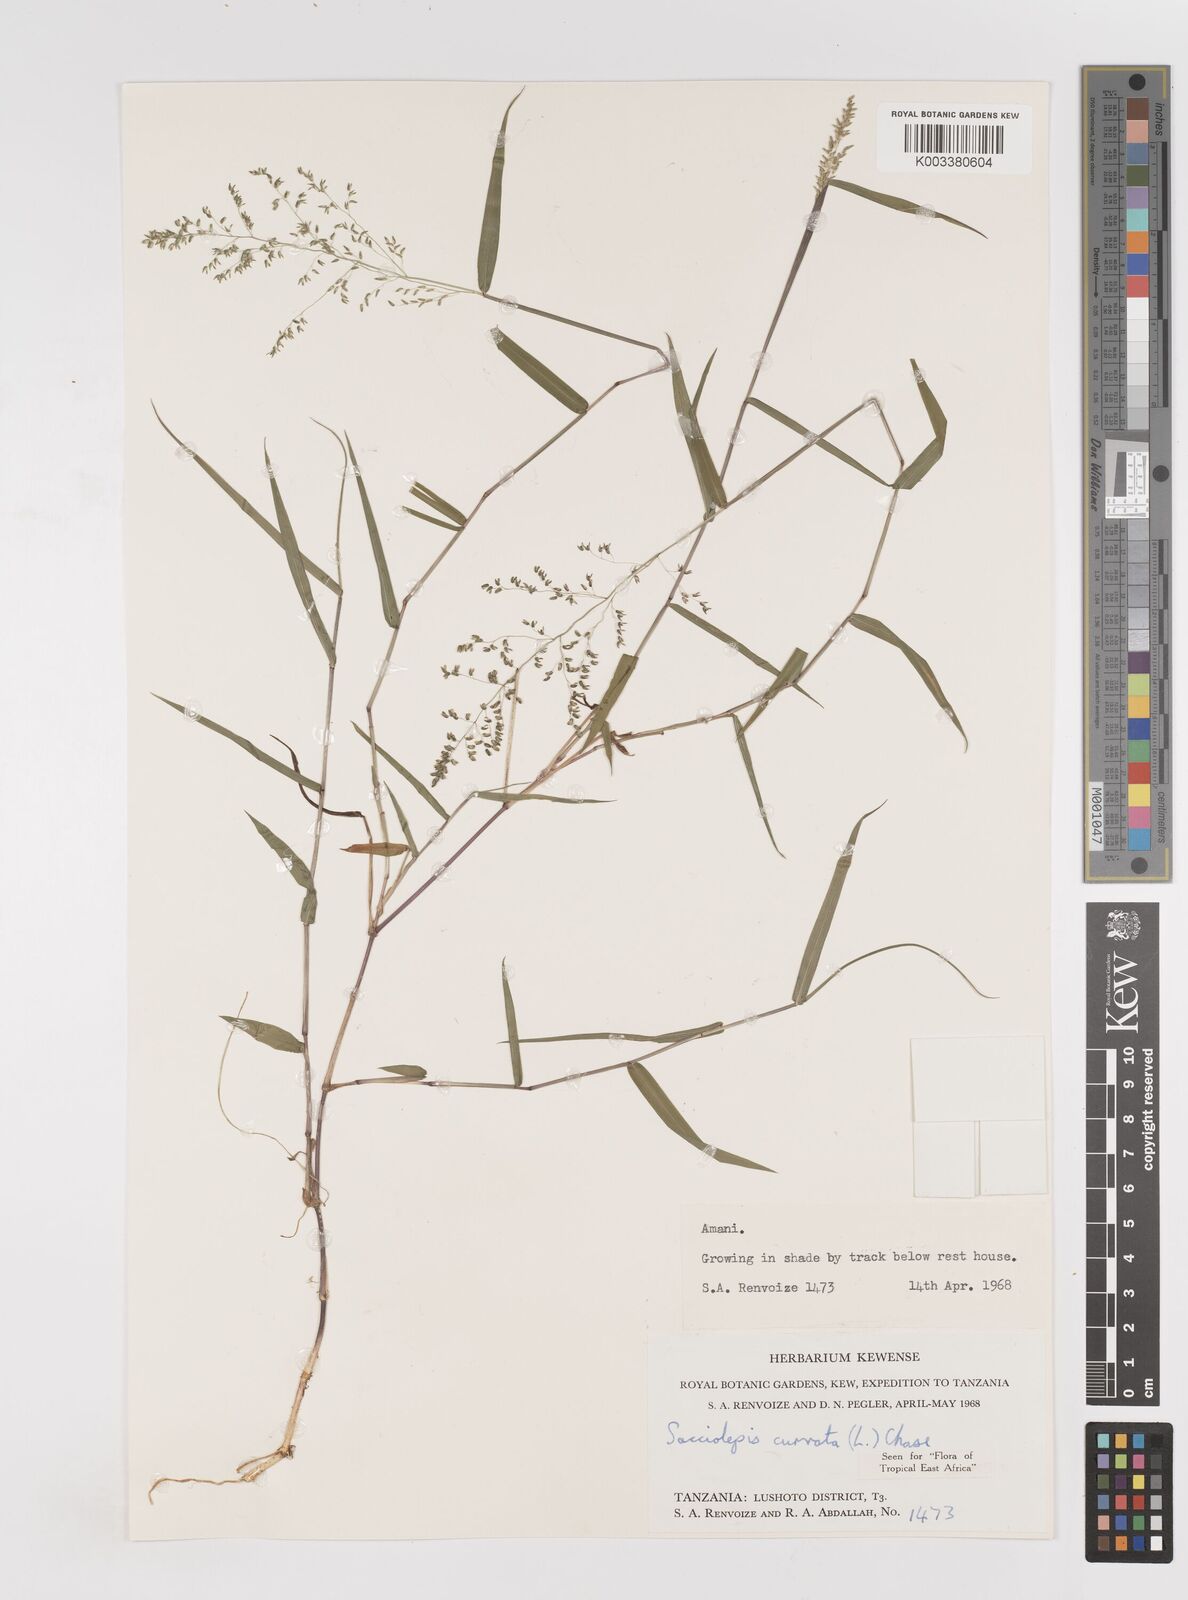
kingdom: Plantae
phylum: Tracheophyta
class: Liliopsida
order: Poales
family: Poaceae
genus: Sacciolepis
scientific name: Sacciolepis curvata
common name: Forest hood grass
